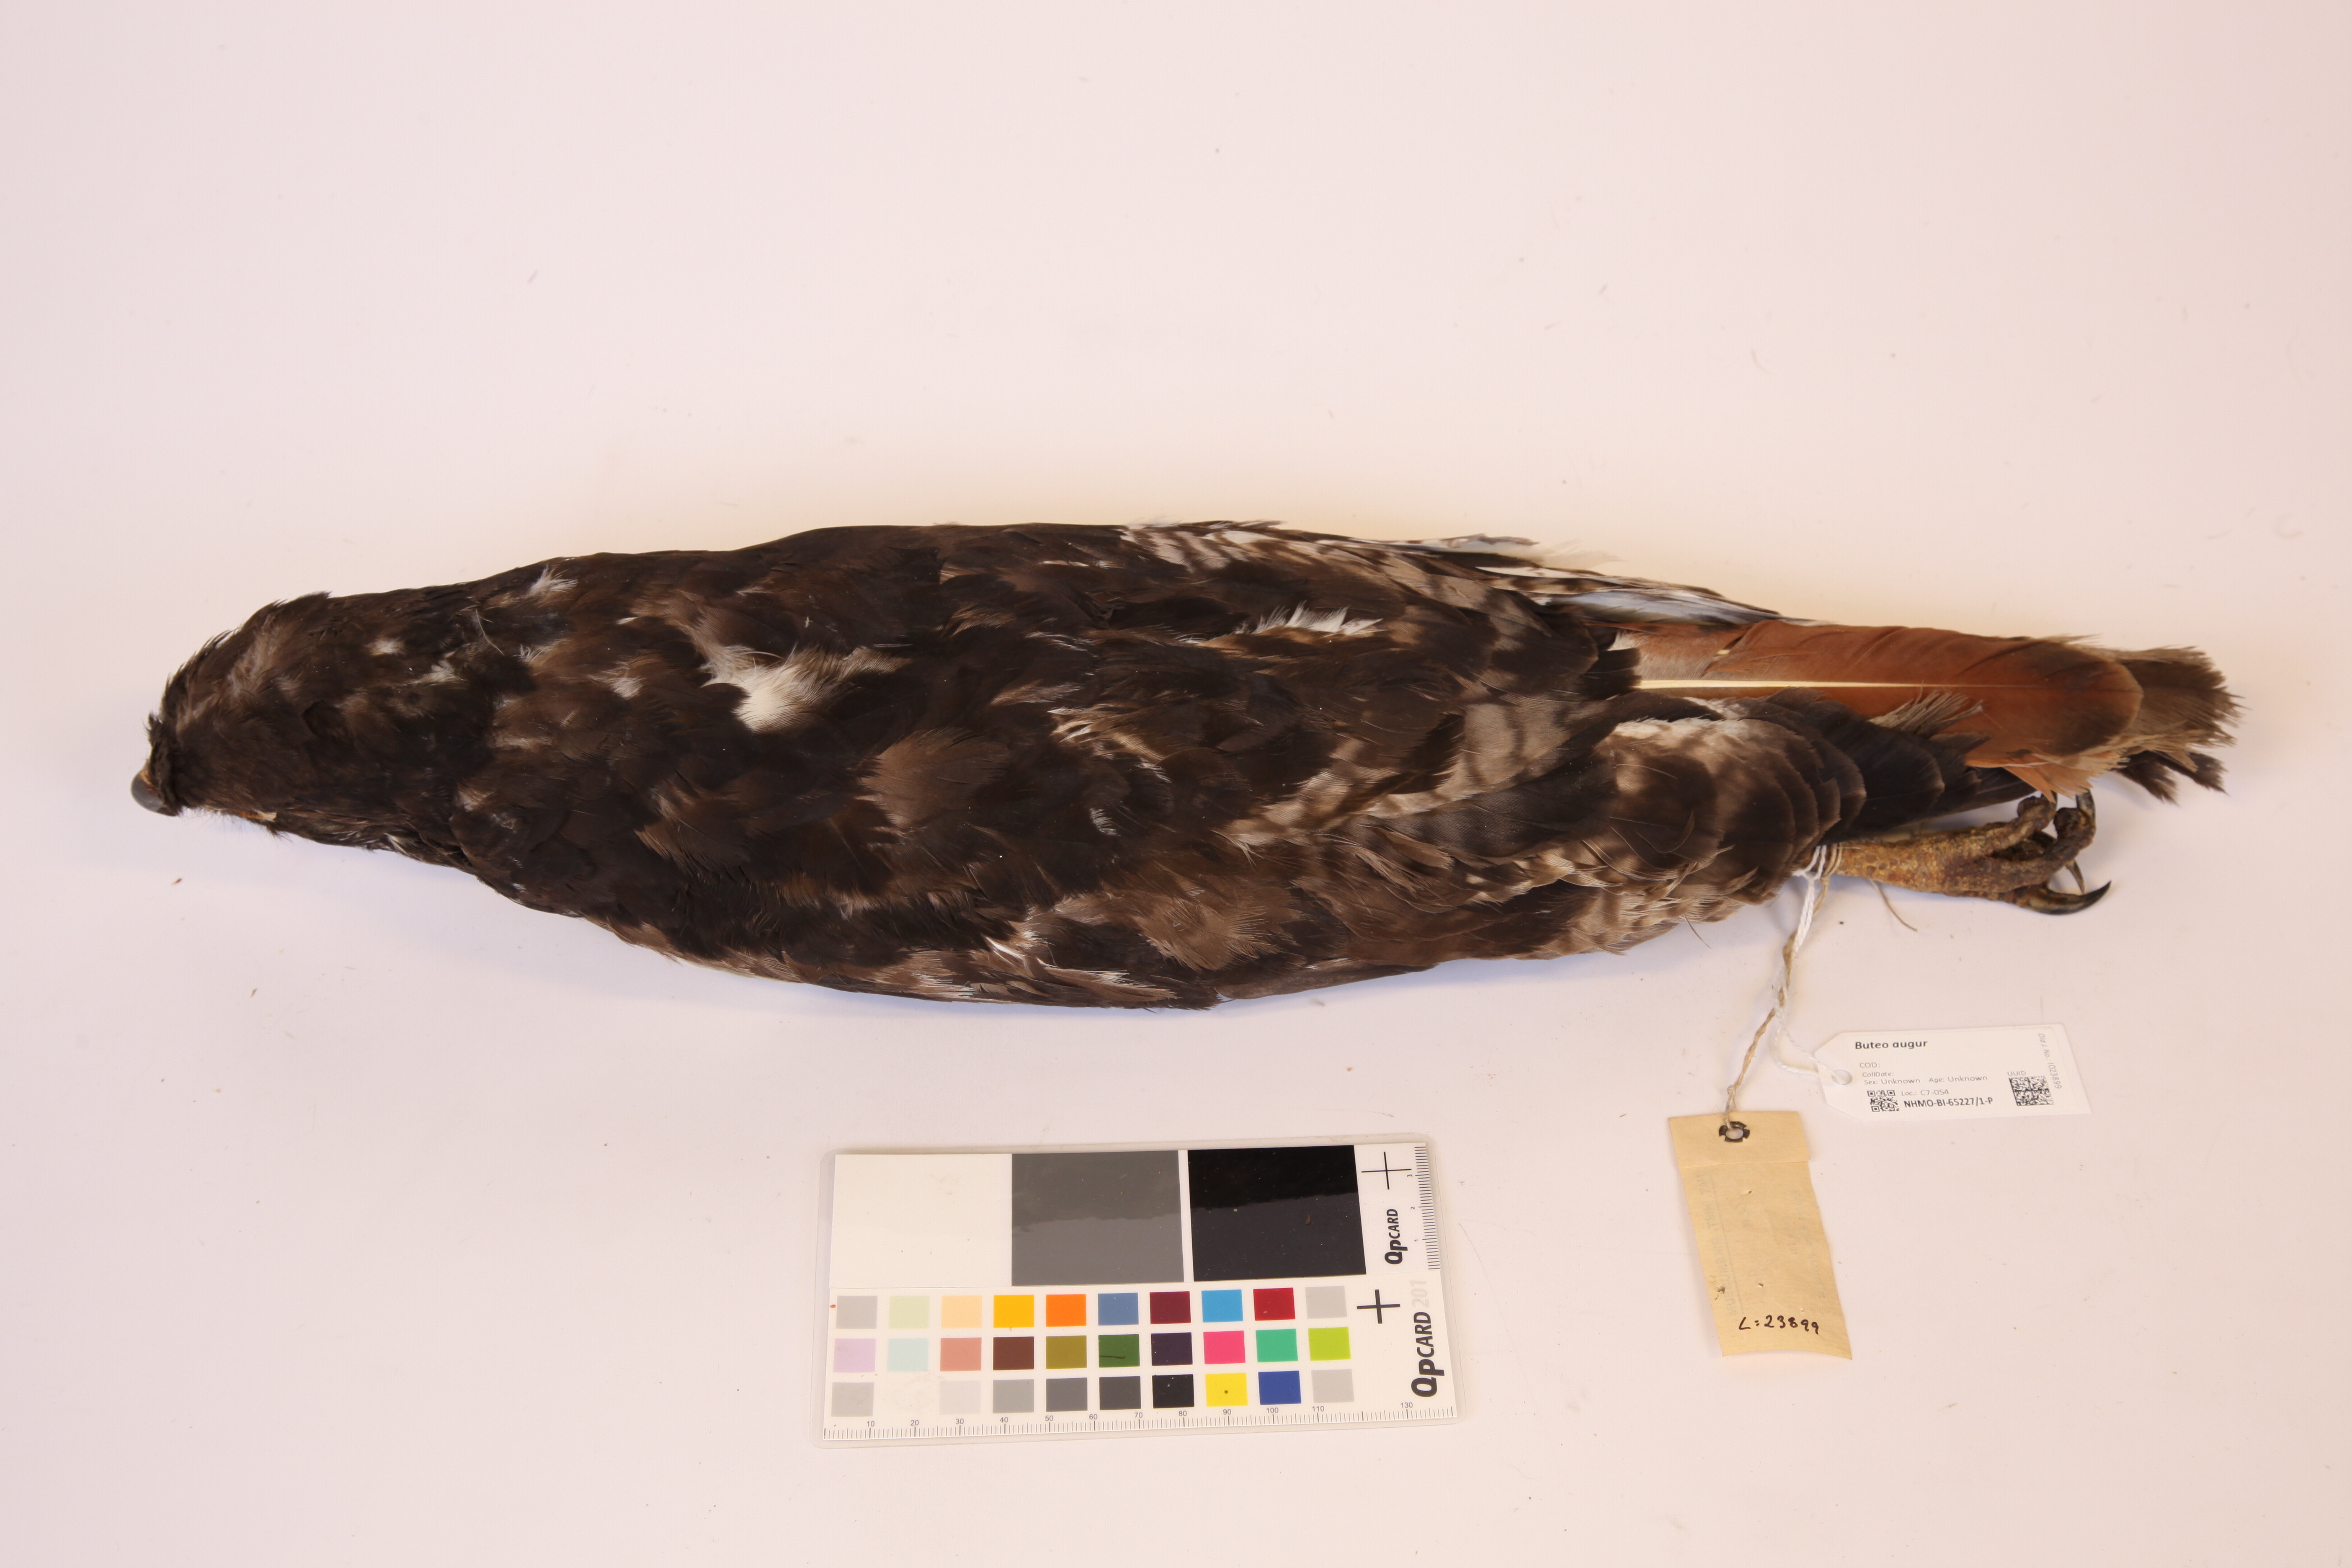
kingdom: Animalia
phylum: Chordata
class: Aves
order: Accipitriformes
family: Accipitridae
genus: Buteo
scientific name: Buteo augur
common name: Augur buzzard
